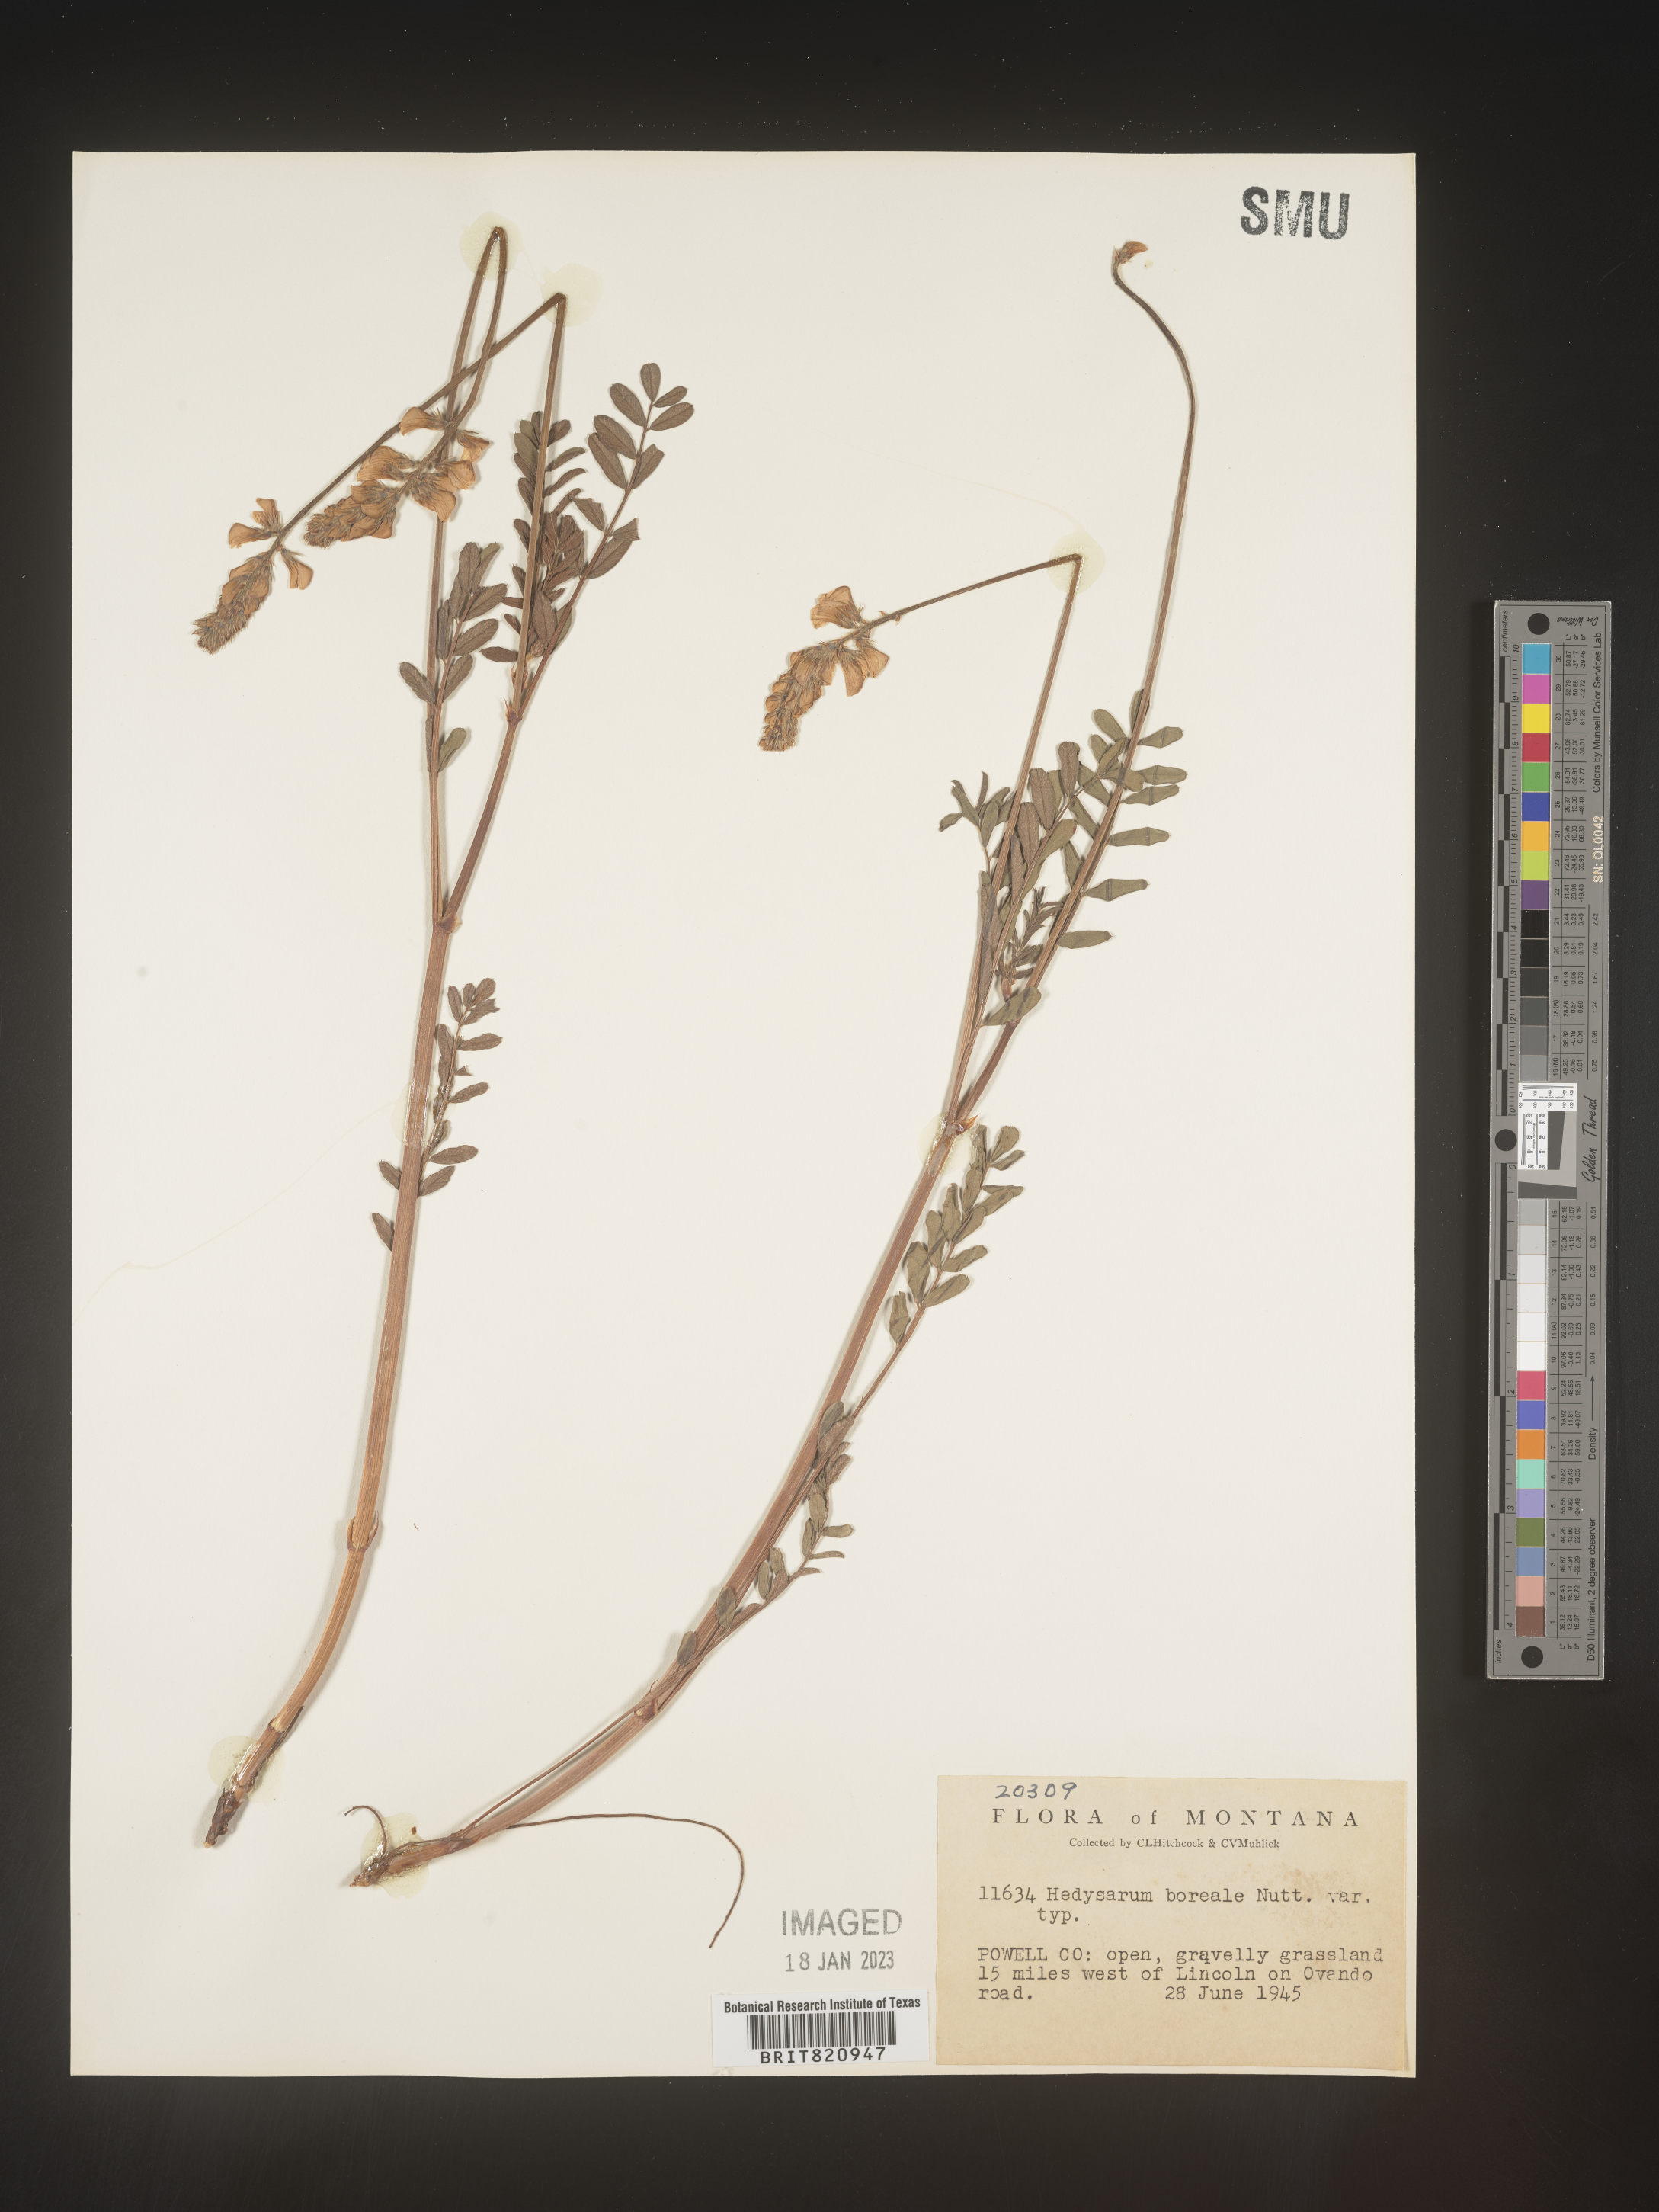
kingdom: Plantae
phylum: Tracheophyta
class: Magnoliopsida
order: Fabales
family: Fabaceae
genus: Hedysarum
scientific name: Hedysarum boreale
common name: Northern sweet-vetch
